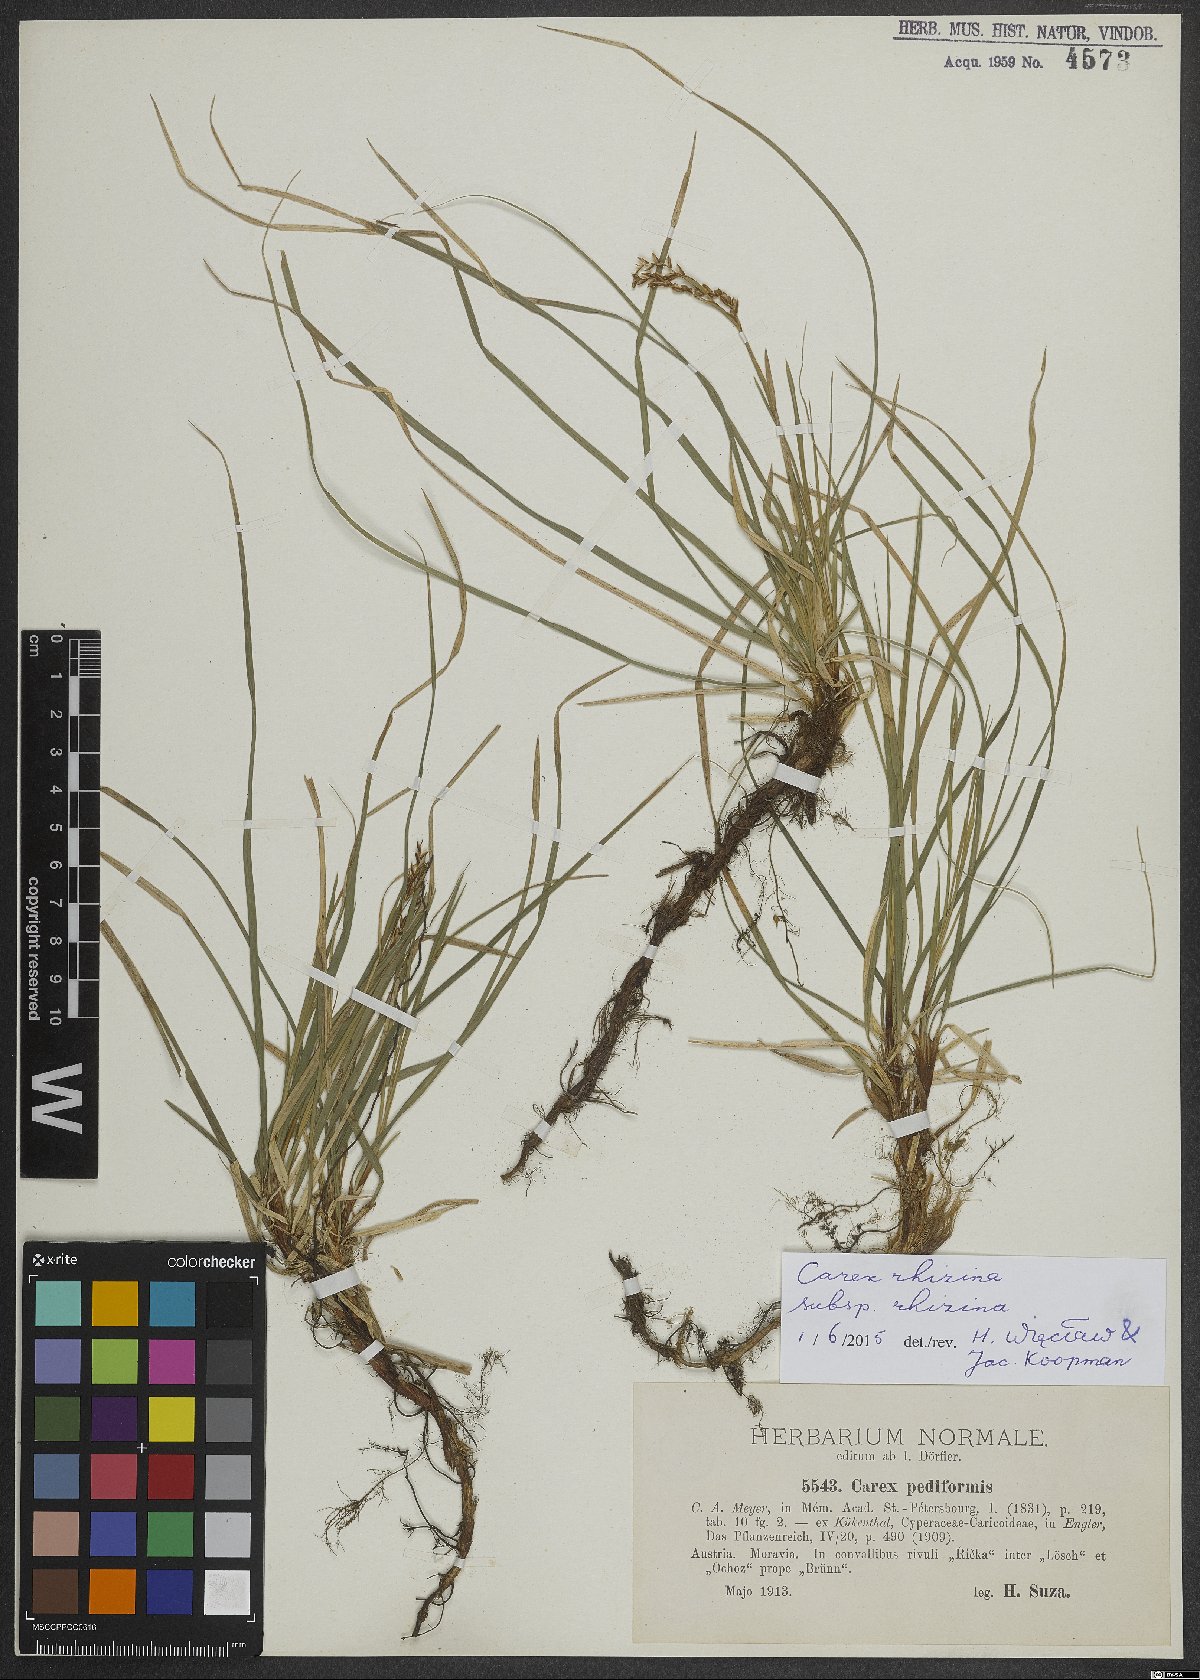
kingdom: Plantae
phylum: Tracheophyta
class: Liliopsida
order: Poales
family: Cyperaceae
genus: Carex
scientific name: Carex rhizina
